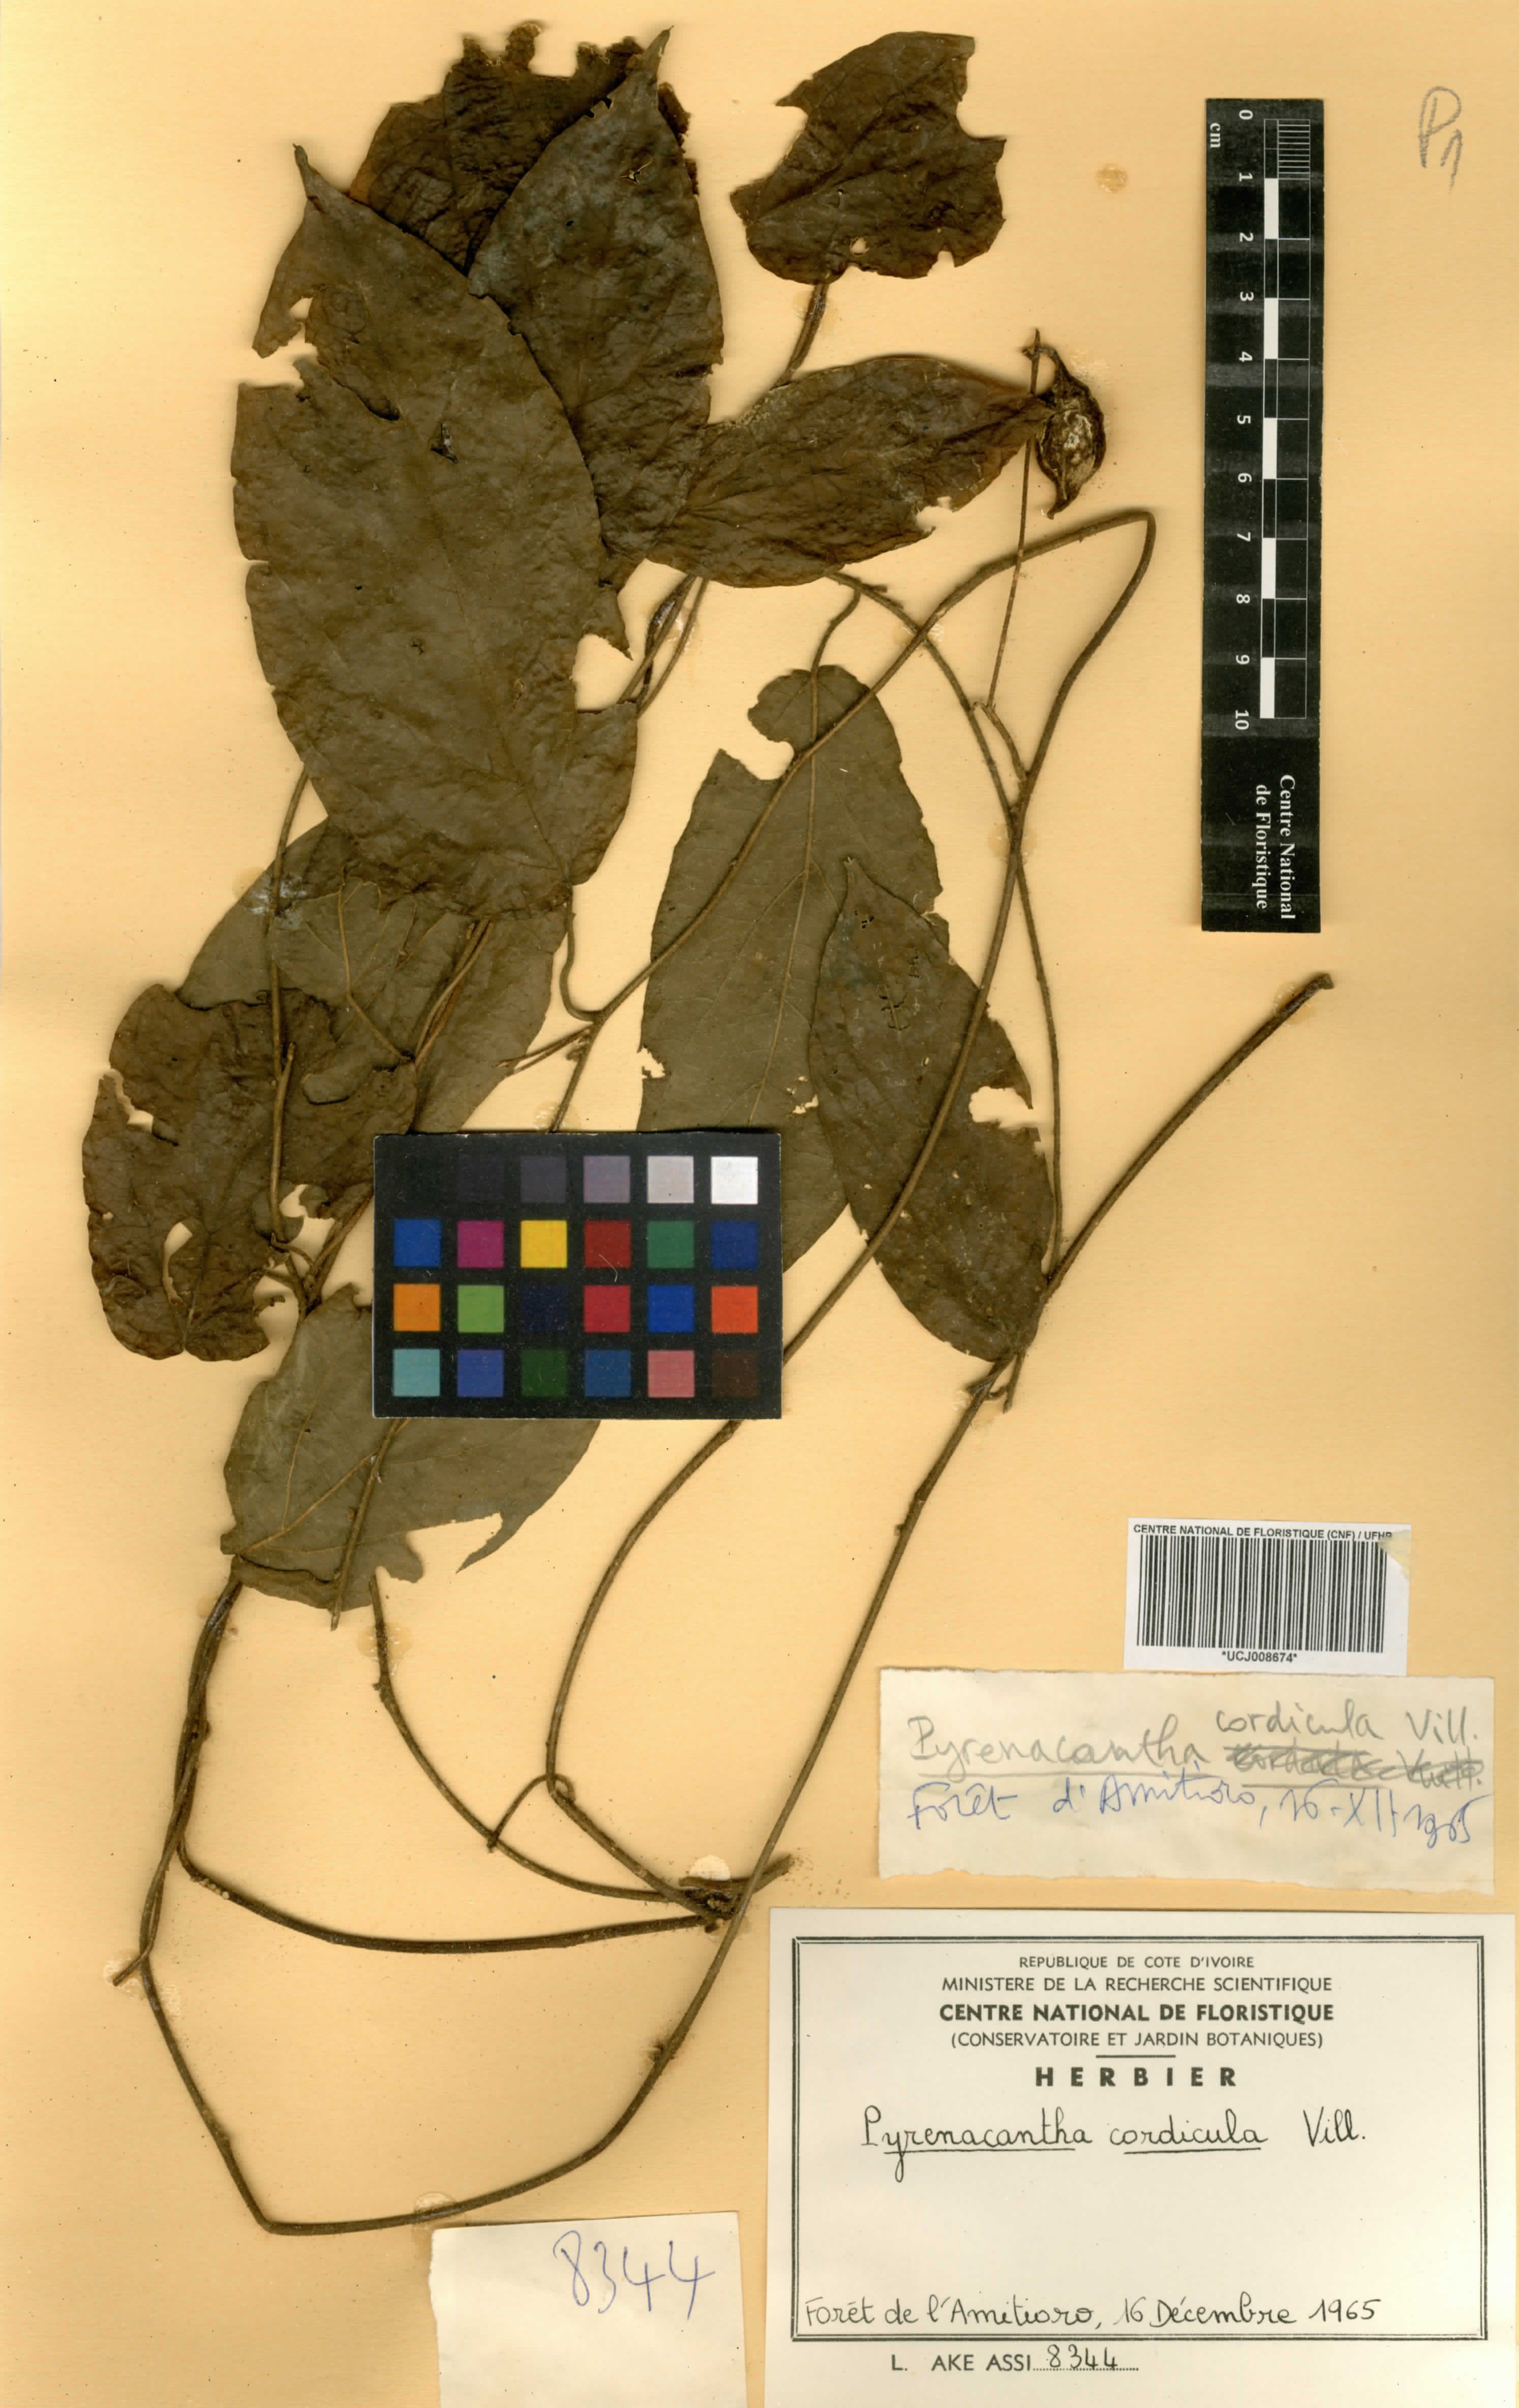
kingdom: Plantae
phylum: Tracheophyta
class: Magnoliopsida
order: Icacinales
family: Icacinaceae
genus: Pyrenacantha
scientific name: Pyrenacantha villiersii
